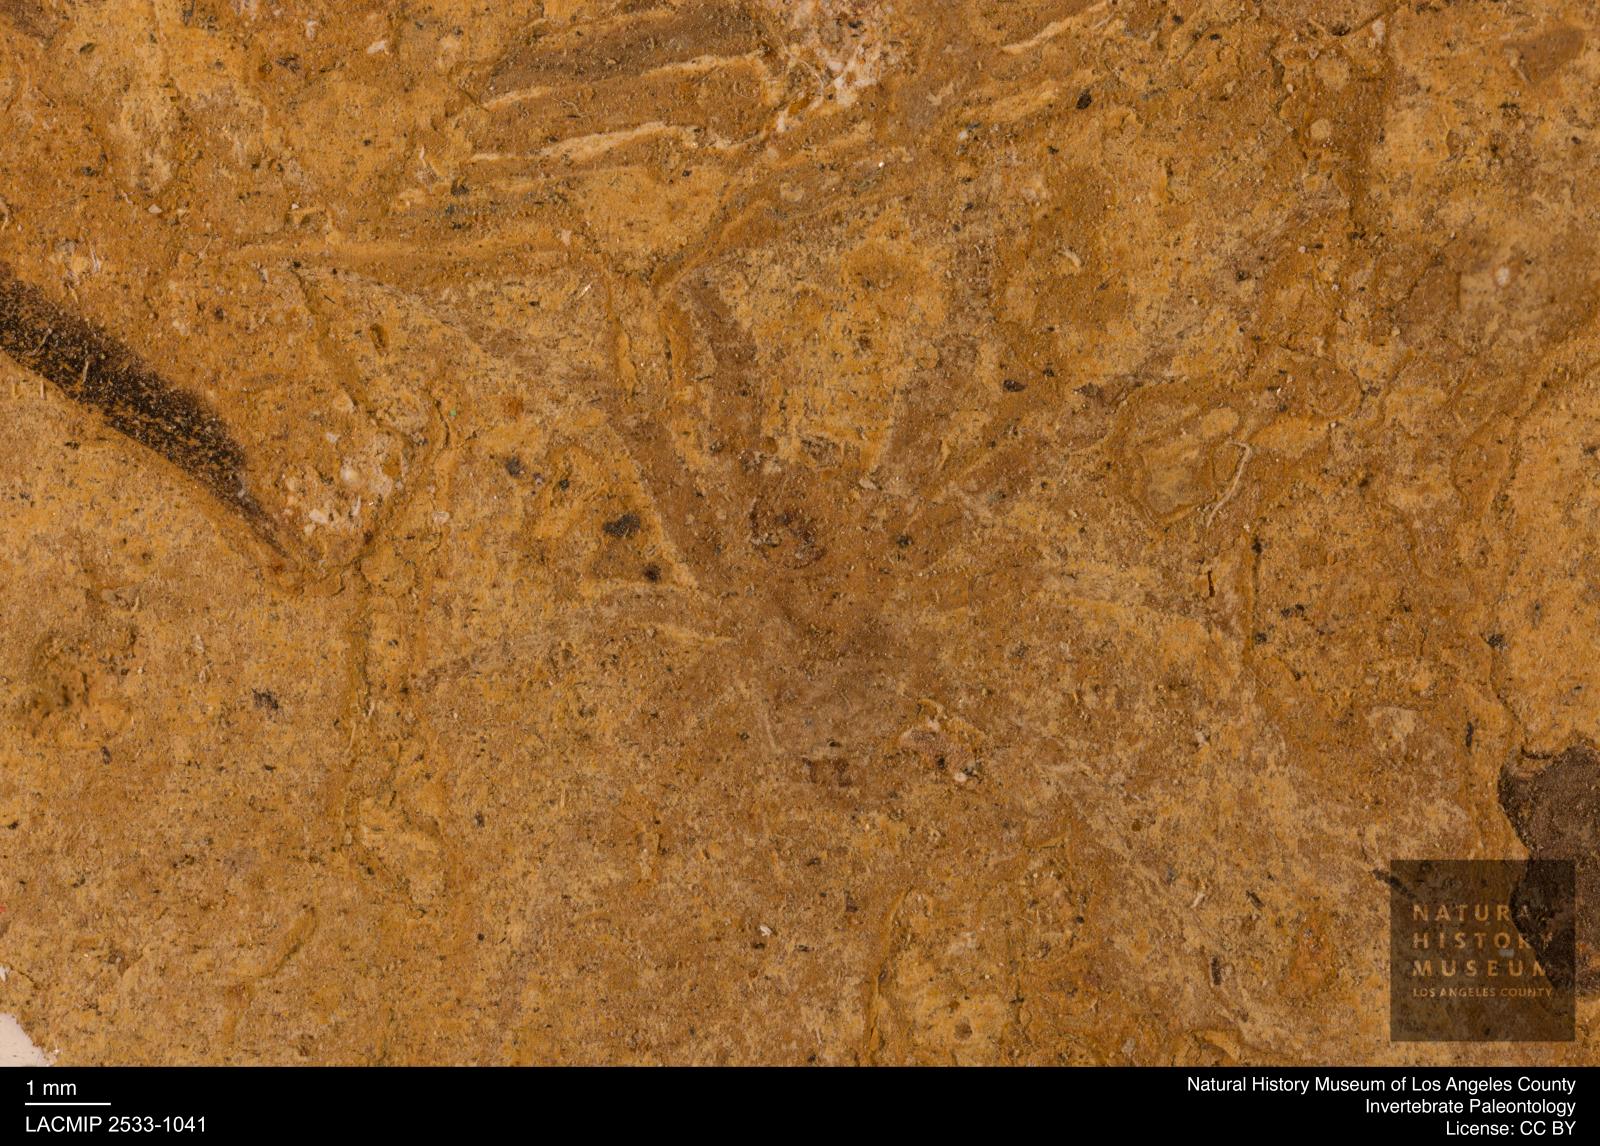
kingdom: Animalia
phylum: Arthropoda
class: Arachnida
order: Araneae
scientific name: Araneae
